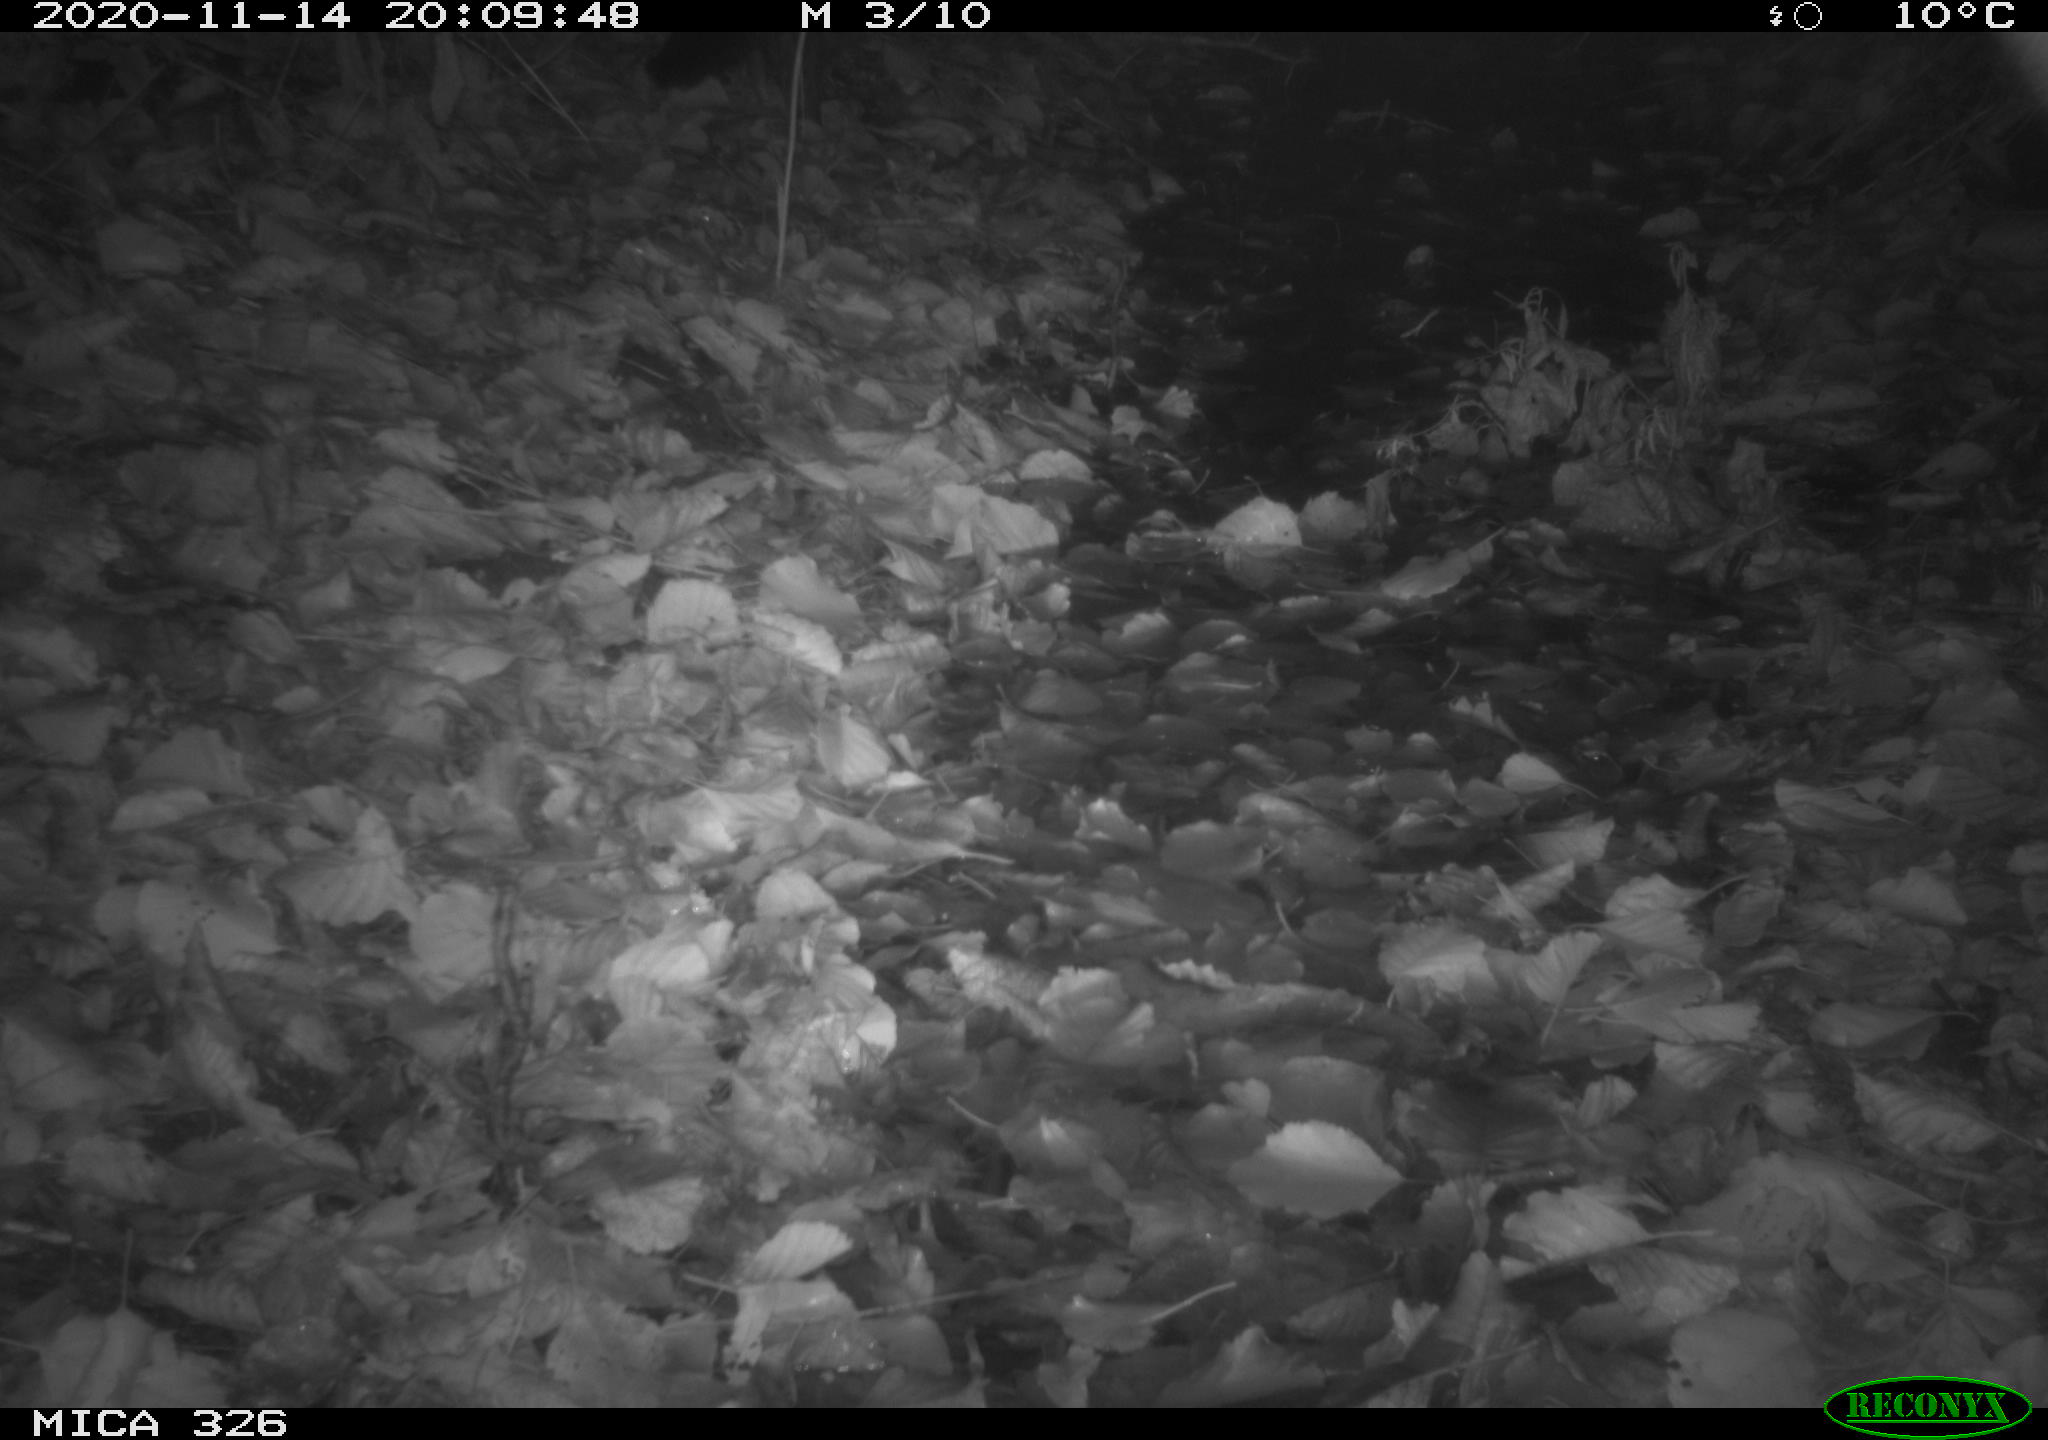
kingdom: Animalia
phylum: Chordata
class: Mammalia
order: Carnivora
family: Mustelidae
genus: Lutra
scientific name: Lutra lutra
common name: European otter
